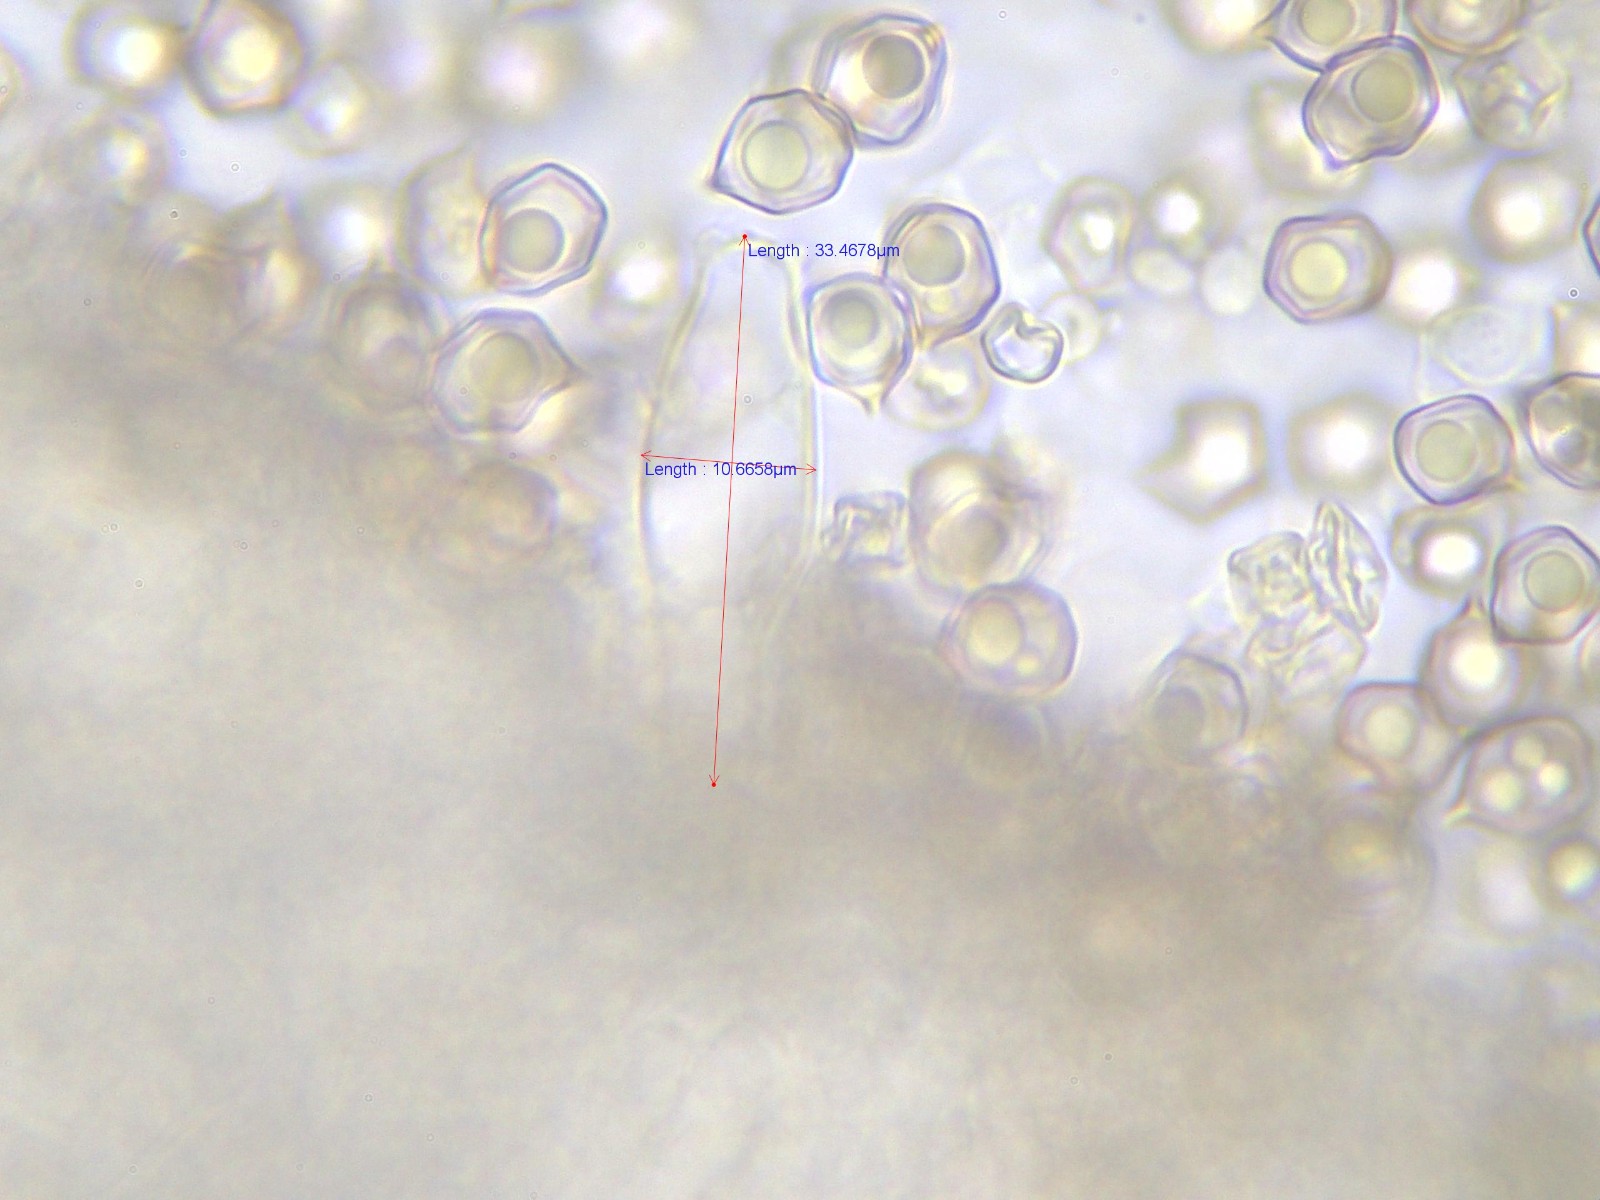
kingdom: Fungi
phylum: Basidiomycota
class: Agaricomycetes
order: Agaricales
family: Entolomataceae
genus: Entoloma
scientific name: Entoloma
